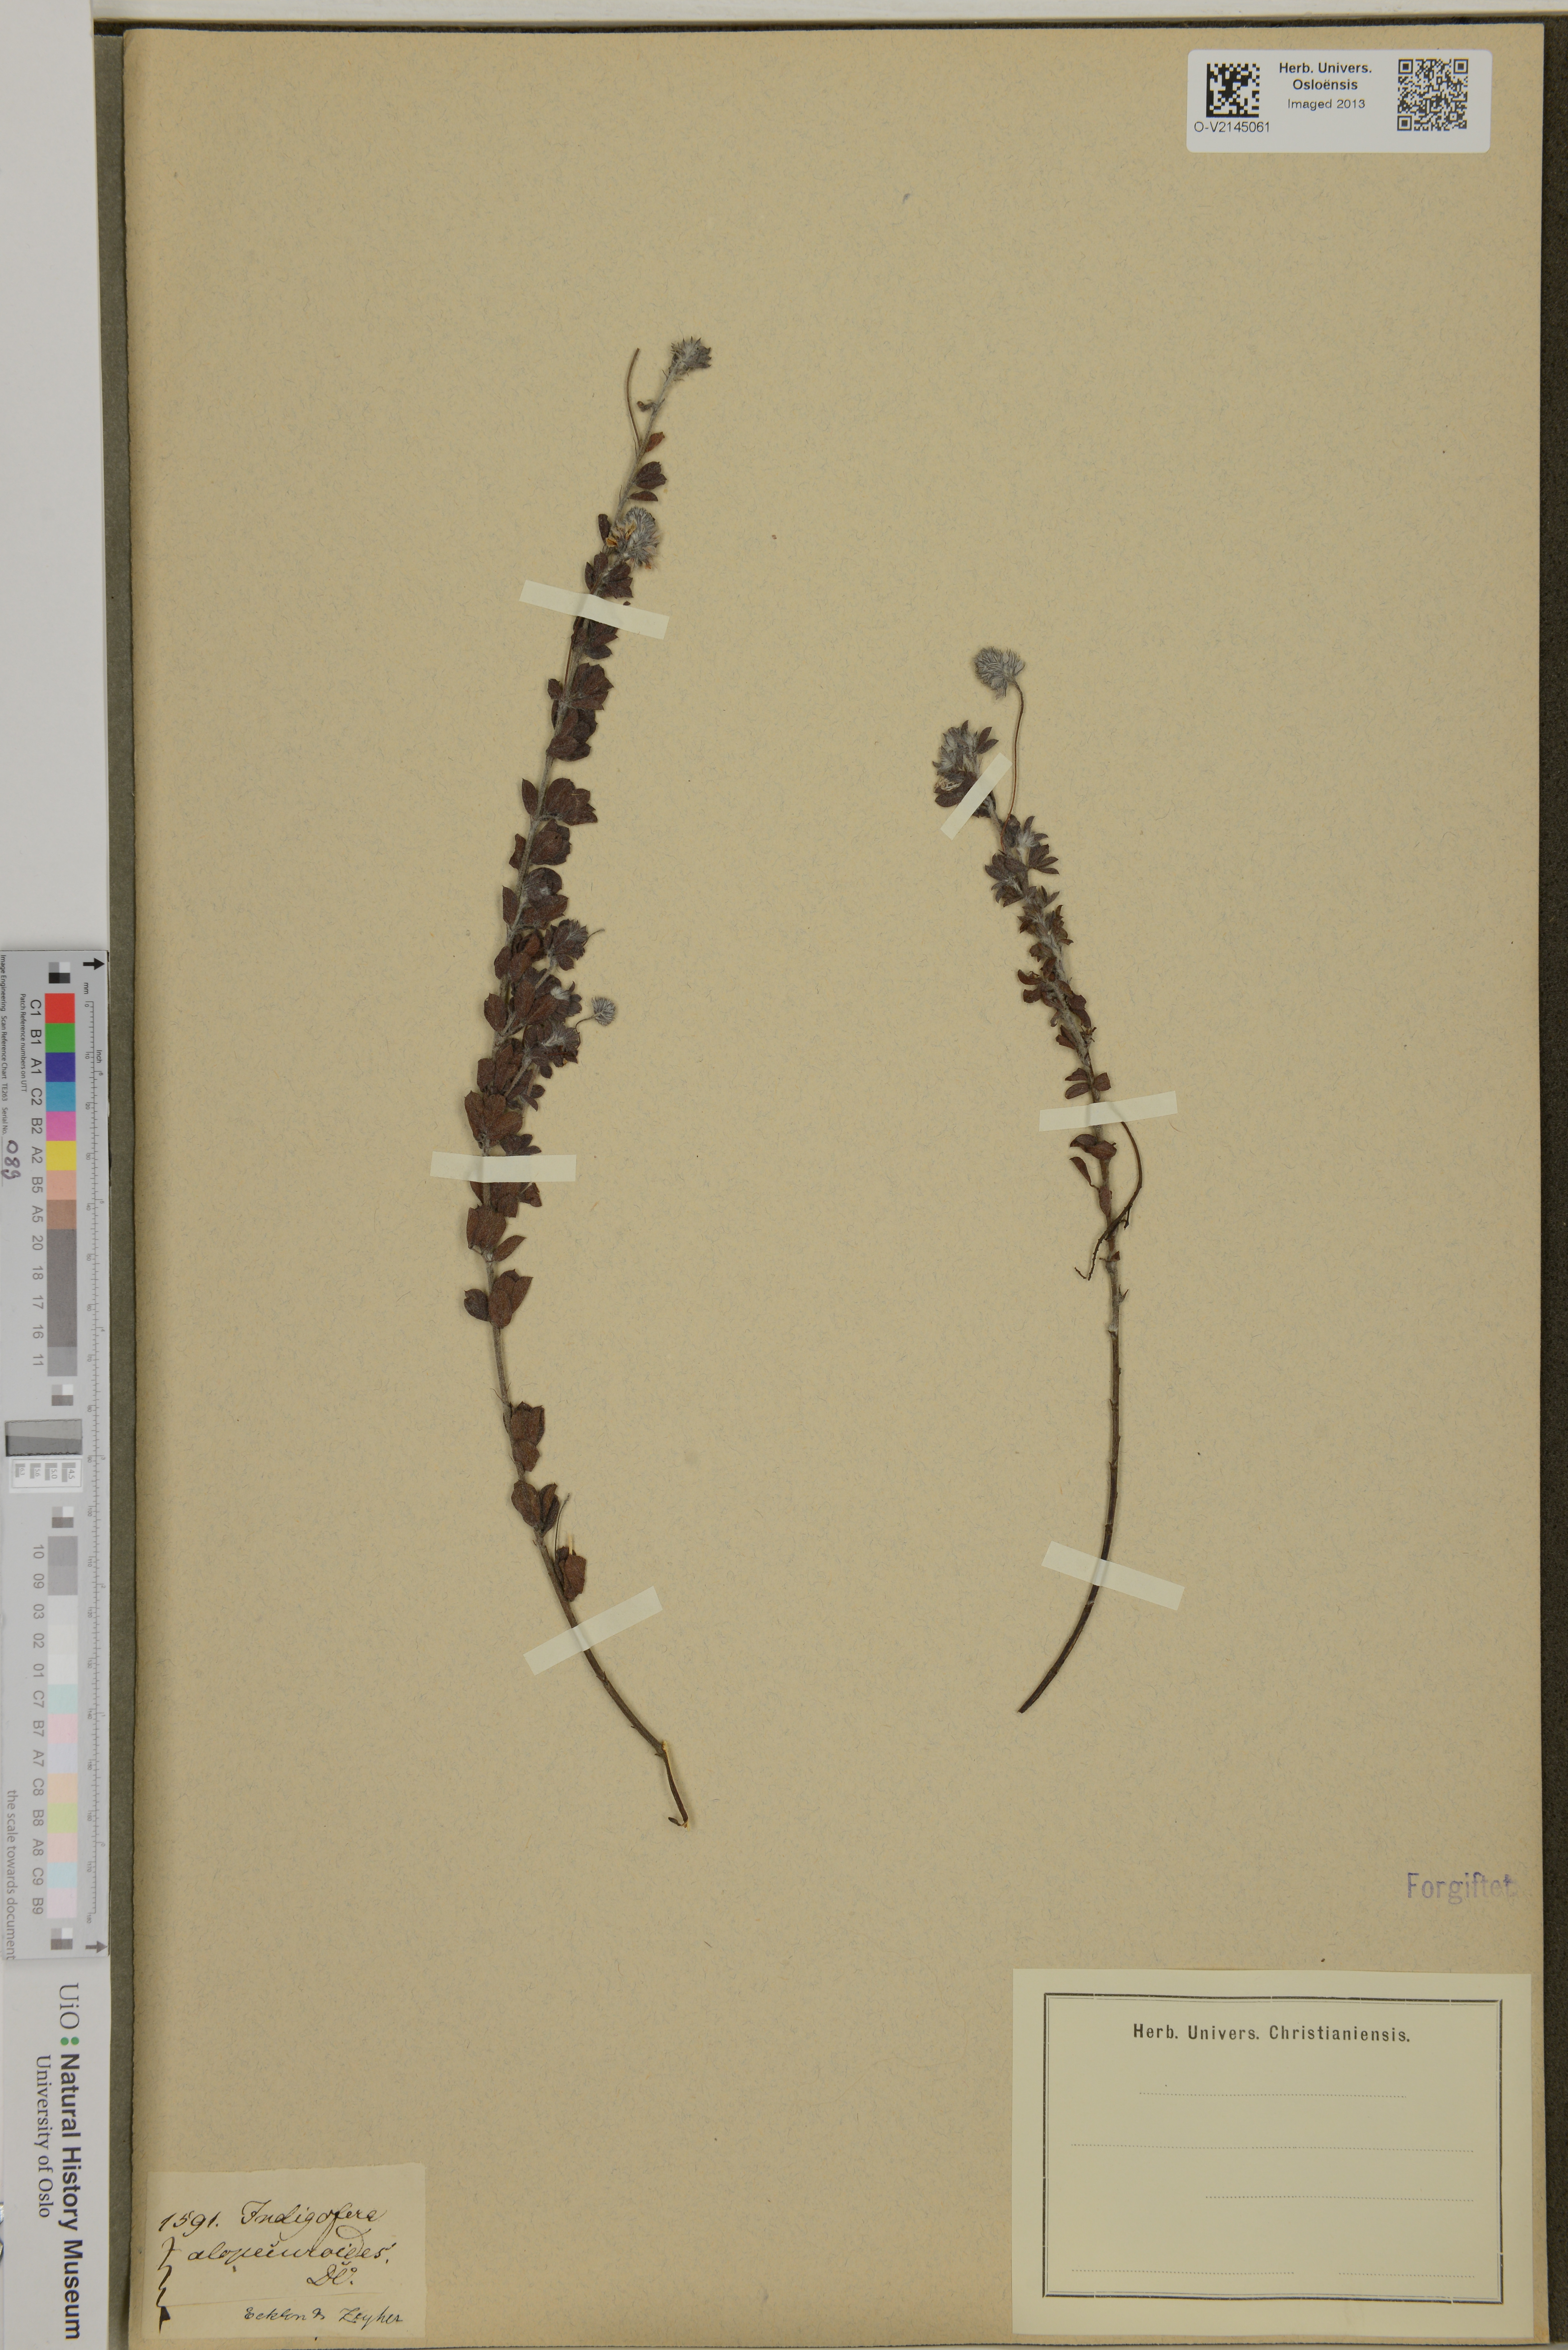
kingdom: Plantae
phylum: Tracheophyta
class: Magnoliopsida
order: Fabales
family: Fabaceae
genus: Indigofera
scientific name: Indigofera alopecuroides
